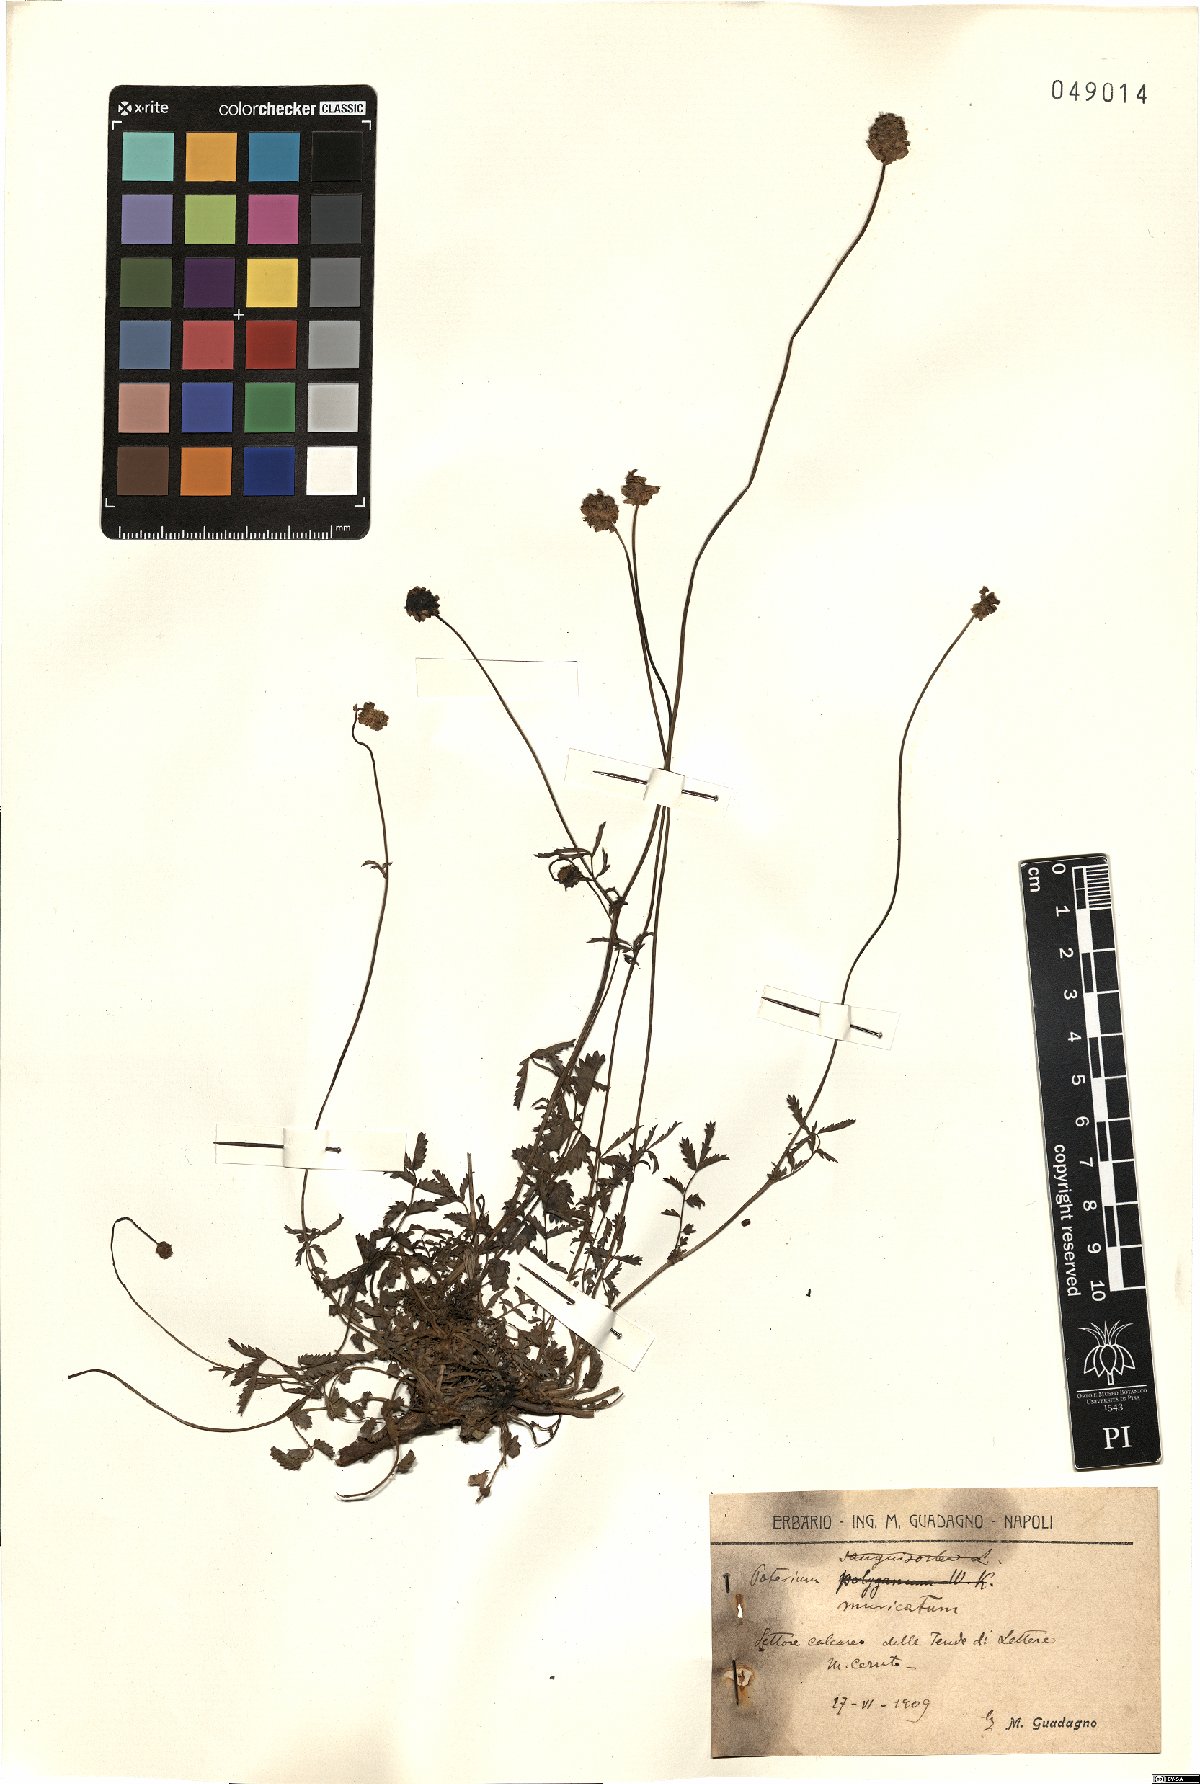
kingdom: Plantae
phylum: Tracheophyta
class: Magnoliopsida
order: Rosales
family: Rosaceae
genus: Poterium
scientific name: Poterium sanguisorba
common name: Salad burnet
